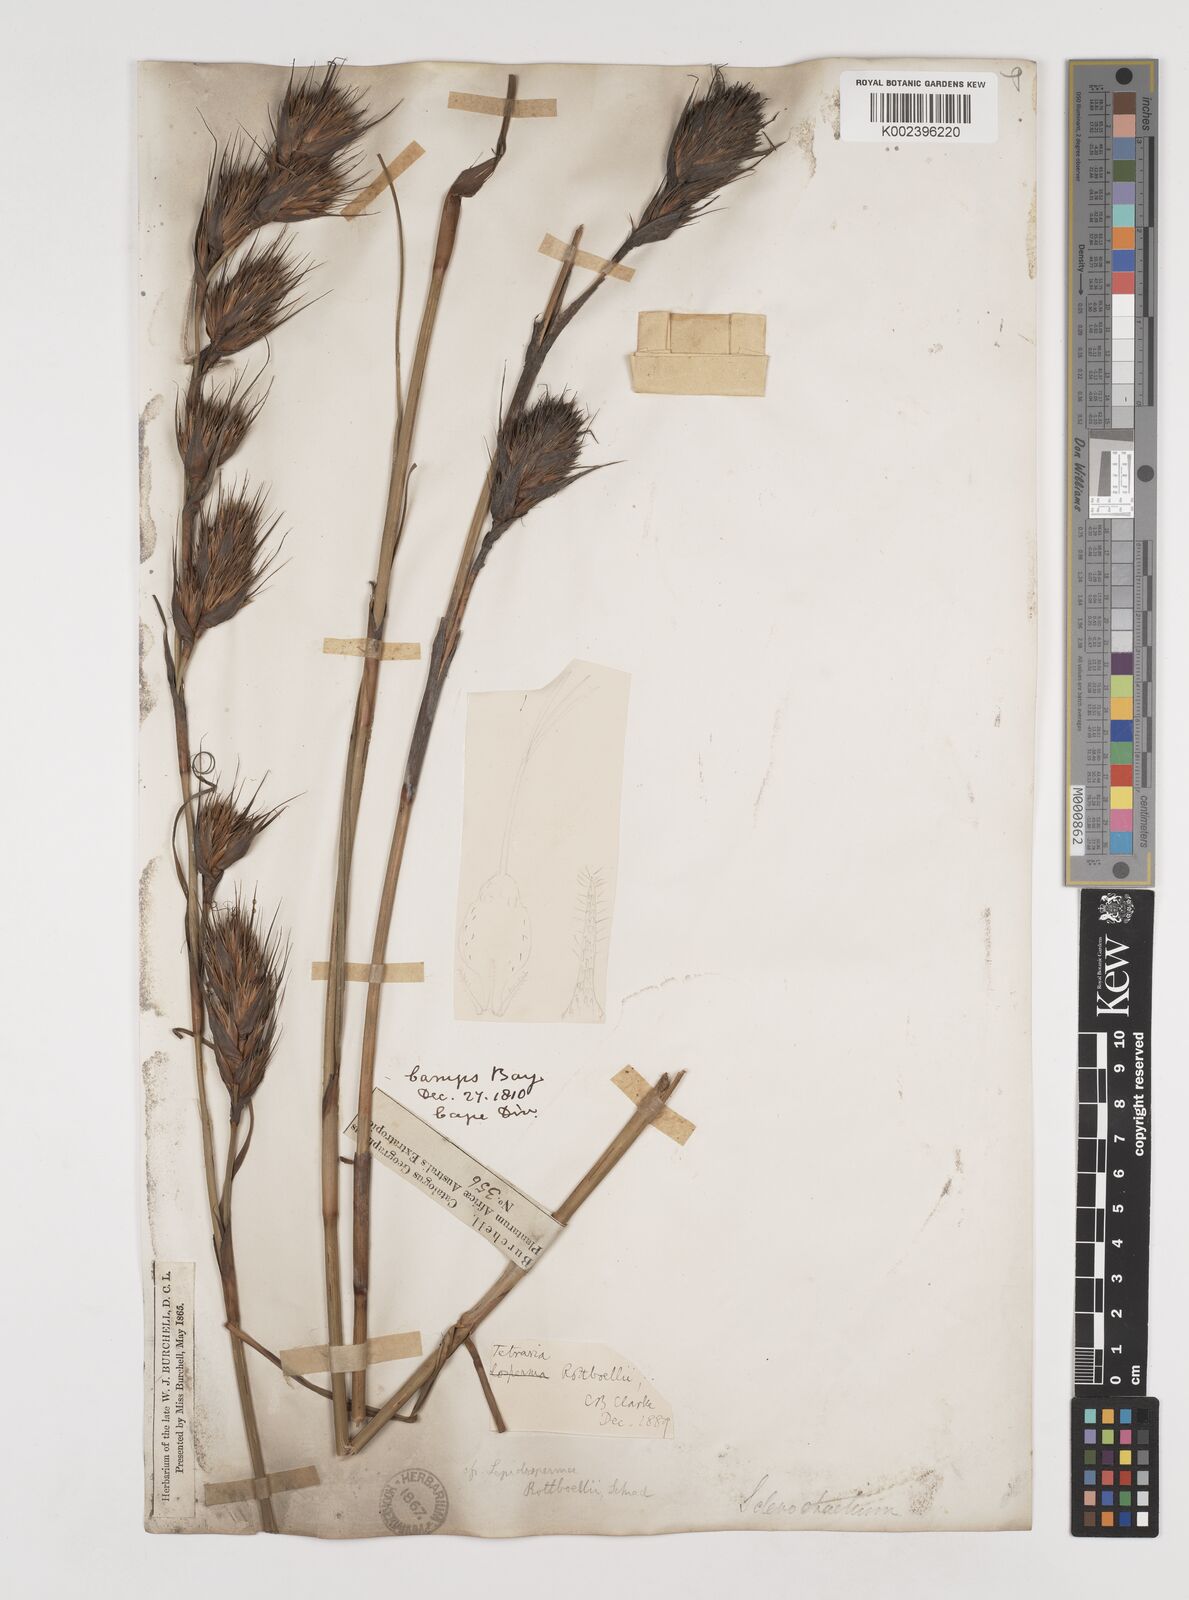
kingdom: Plantae
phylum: Tracheophyta
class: Liliopsida
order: Poales
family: Cyperaceae
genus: Tetraria
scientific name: Tetraria bromoides
